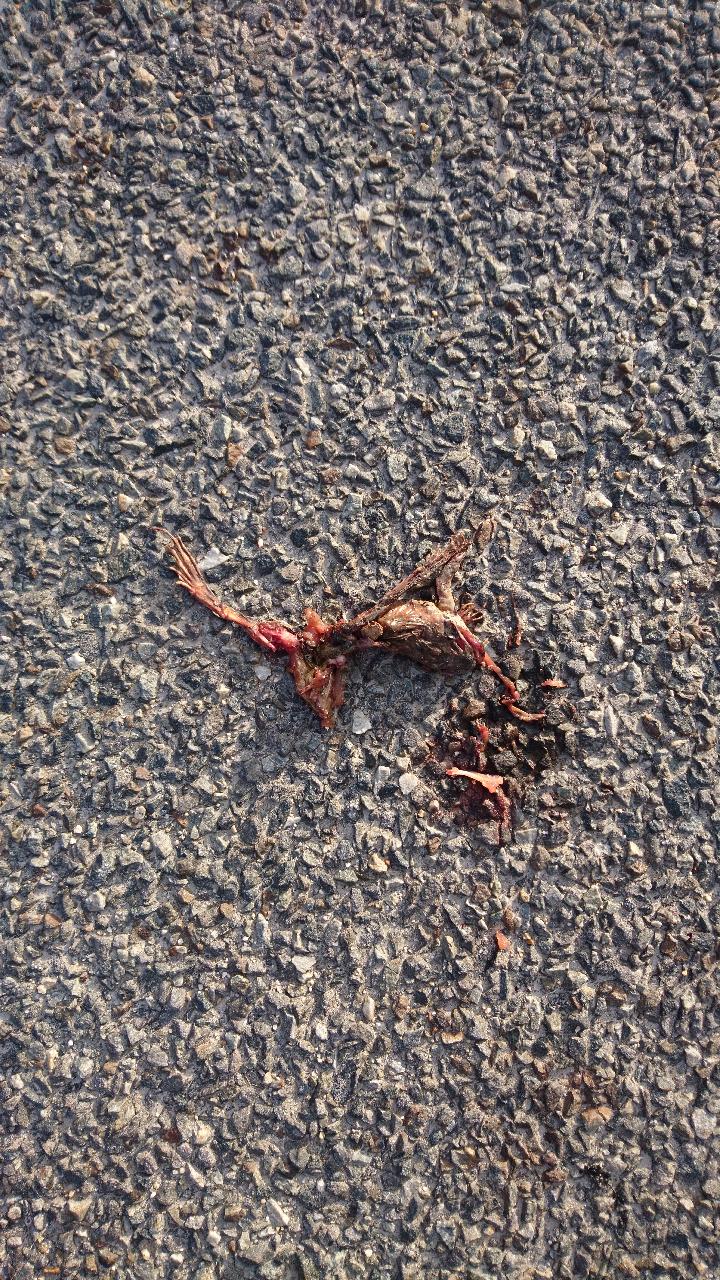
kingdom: Animalia
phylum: Chordata
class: Amphibia
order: Anura
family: Ranidae
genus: Rana
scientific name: Rana dalmatina
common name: Agile frog
